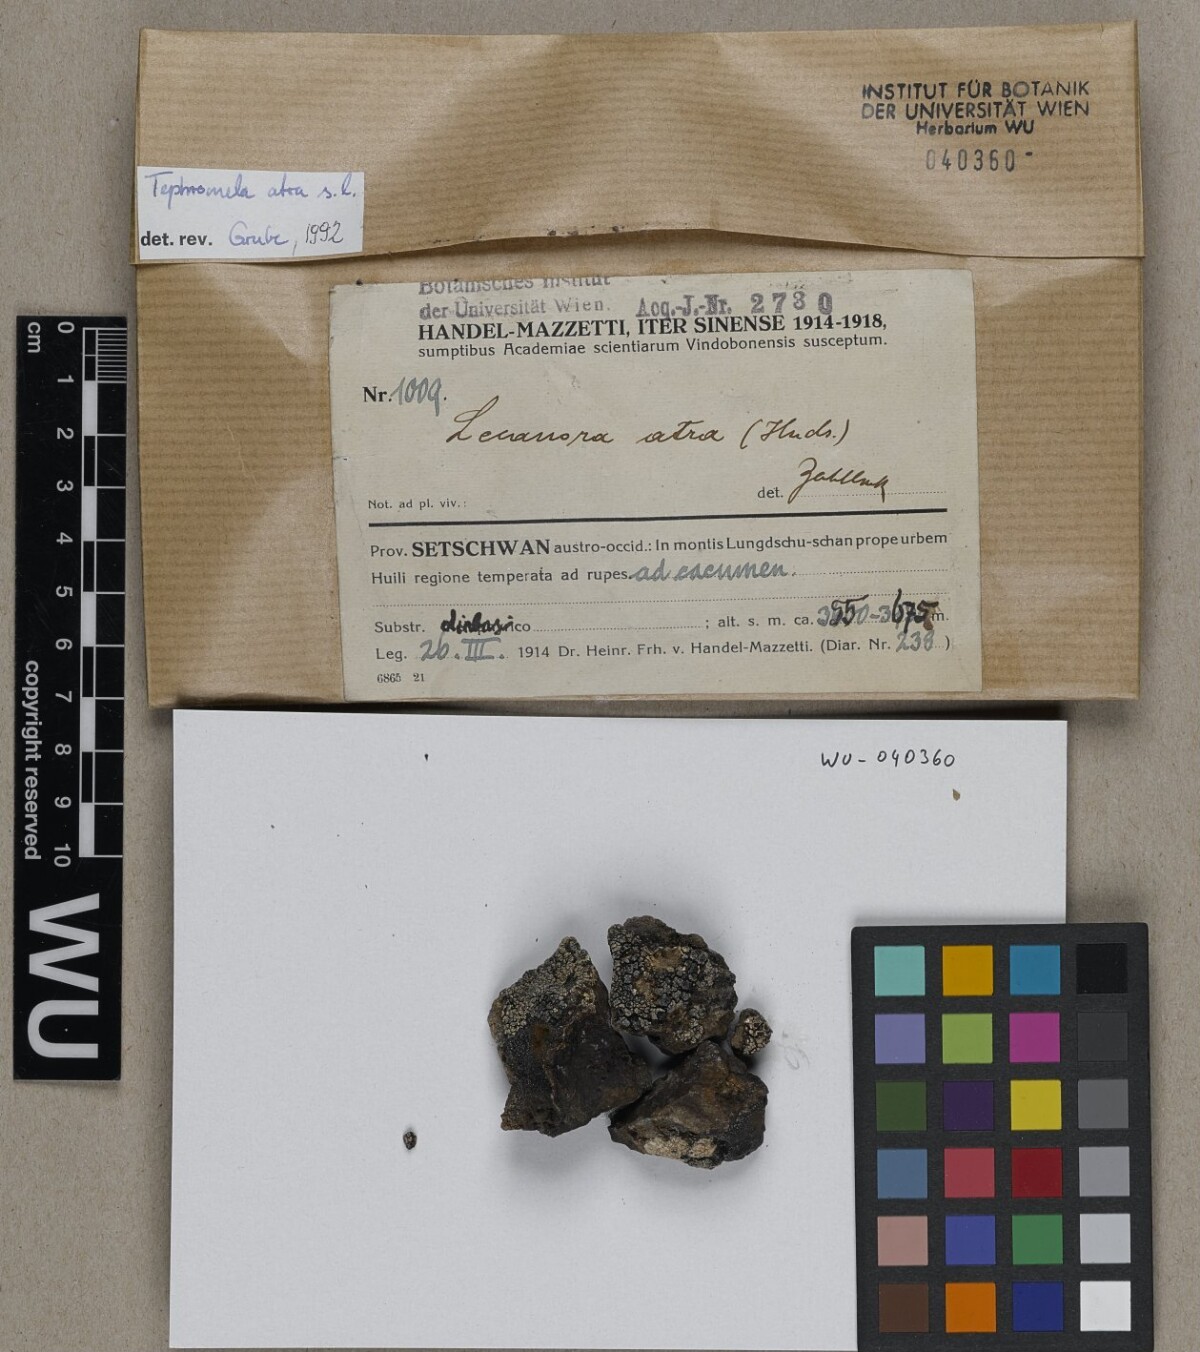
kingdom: Fungi
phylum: Ascomycota
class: Lecanoromycetes
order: Lecanorales
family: Tephromelataceae
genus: Tephromela
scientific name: Tephromela atra
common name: Black shields
